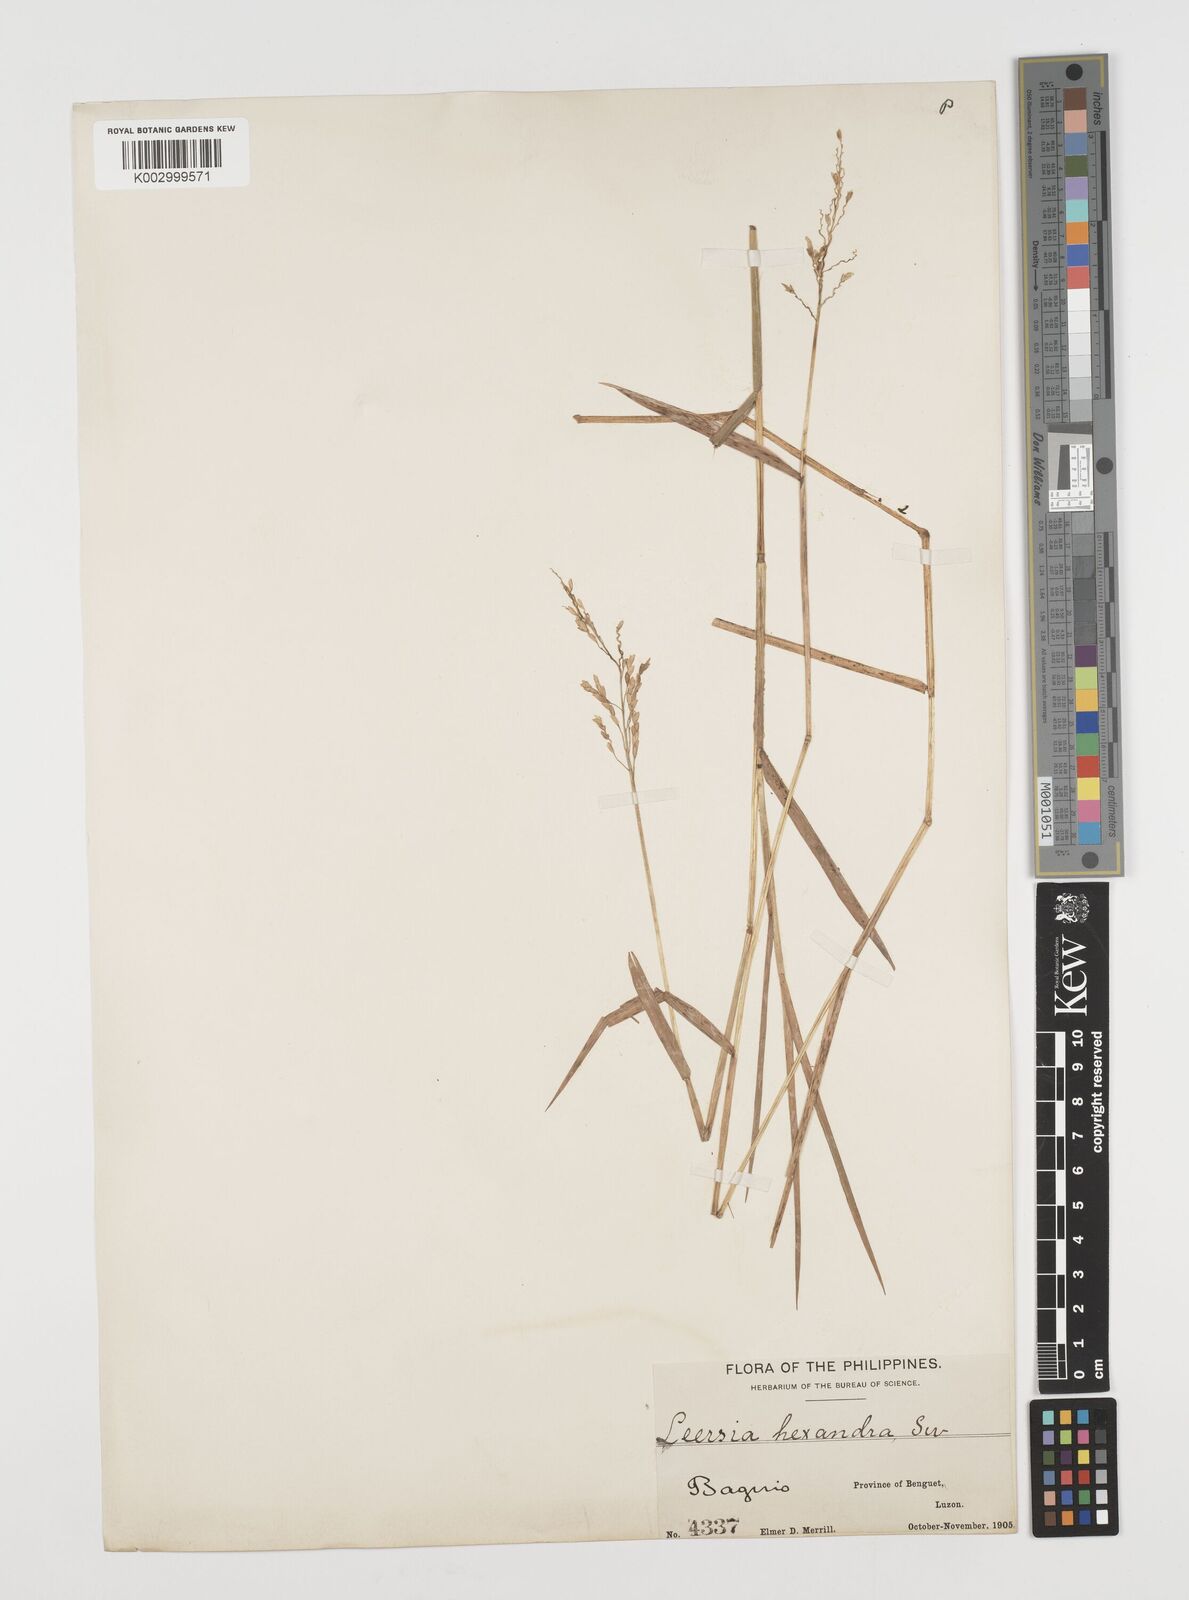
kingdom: Plantae
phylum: Tracheophyta
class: Liliopsida
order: Poales
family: Poaceae
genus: Leersia
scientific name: Leersia hexandra
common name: Southern cut grass
